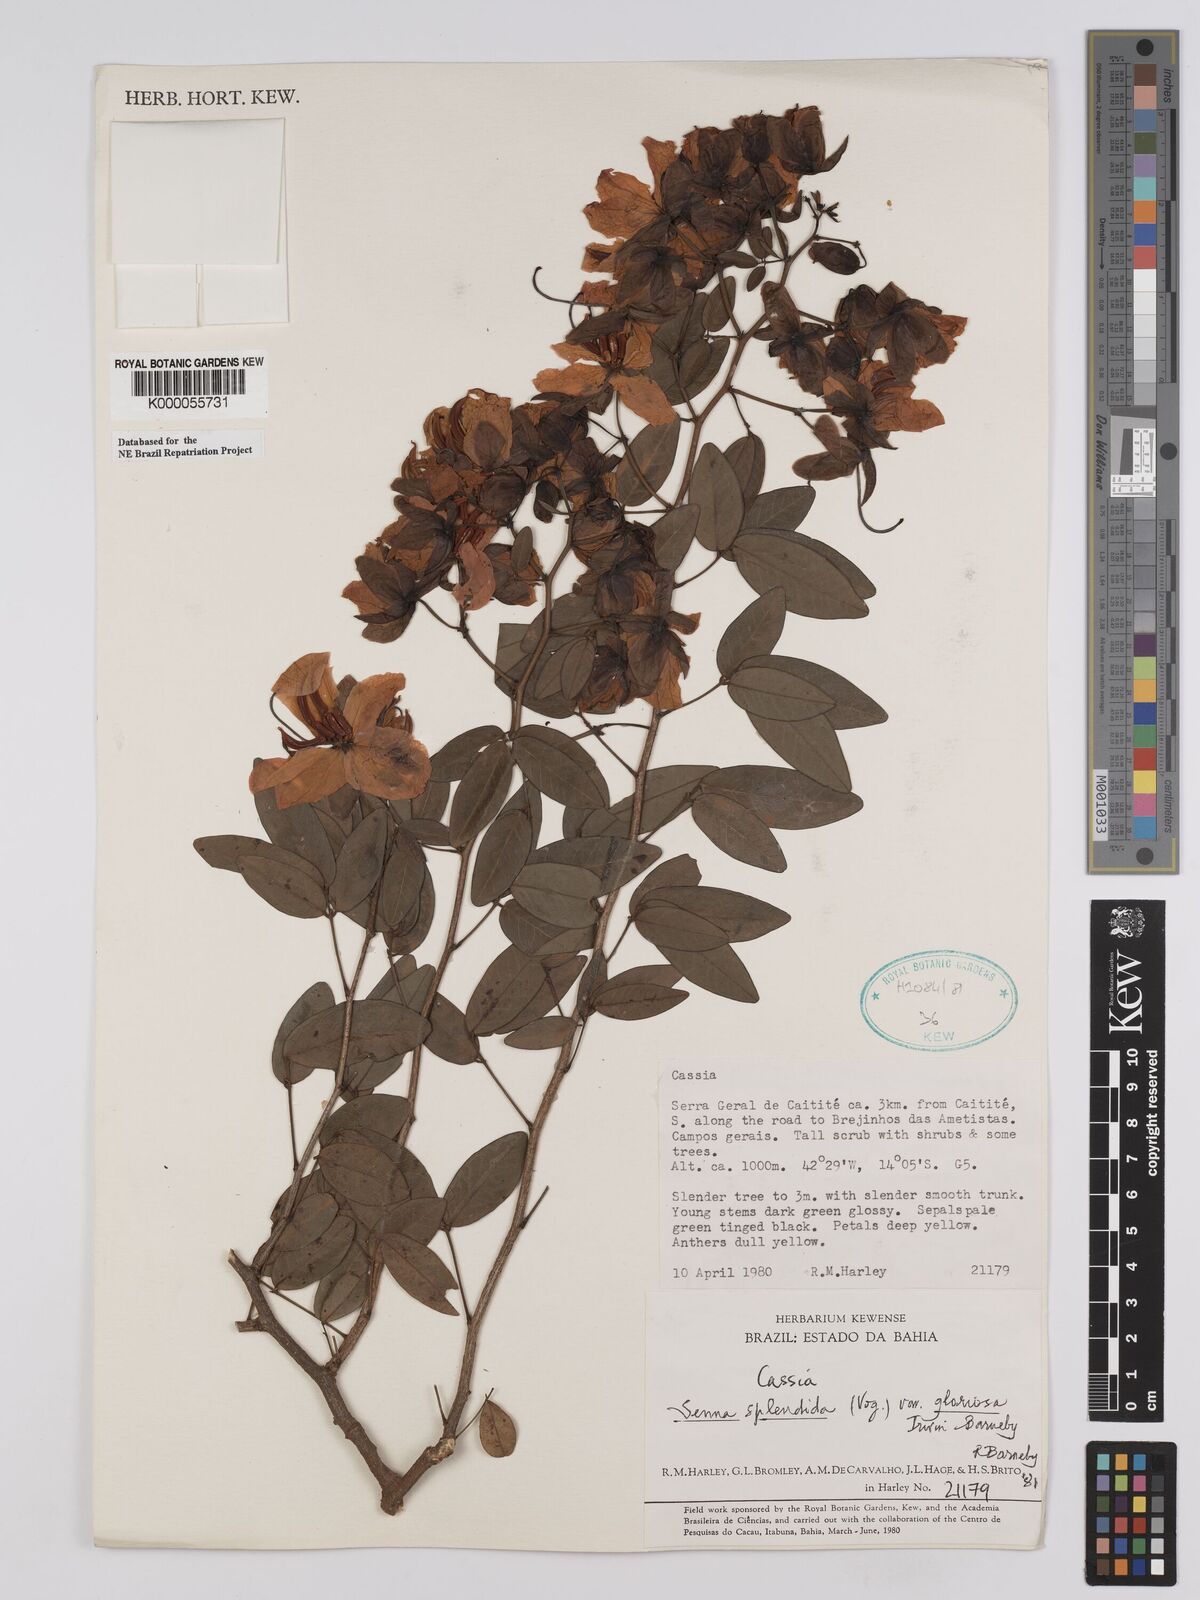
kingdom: Plantae
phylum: Tracheophyta
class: Magnoliopsida
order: Fabales
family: Fabaceae
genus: Senna
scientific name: Senna splendida
